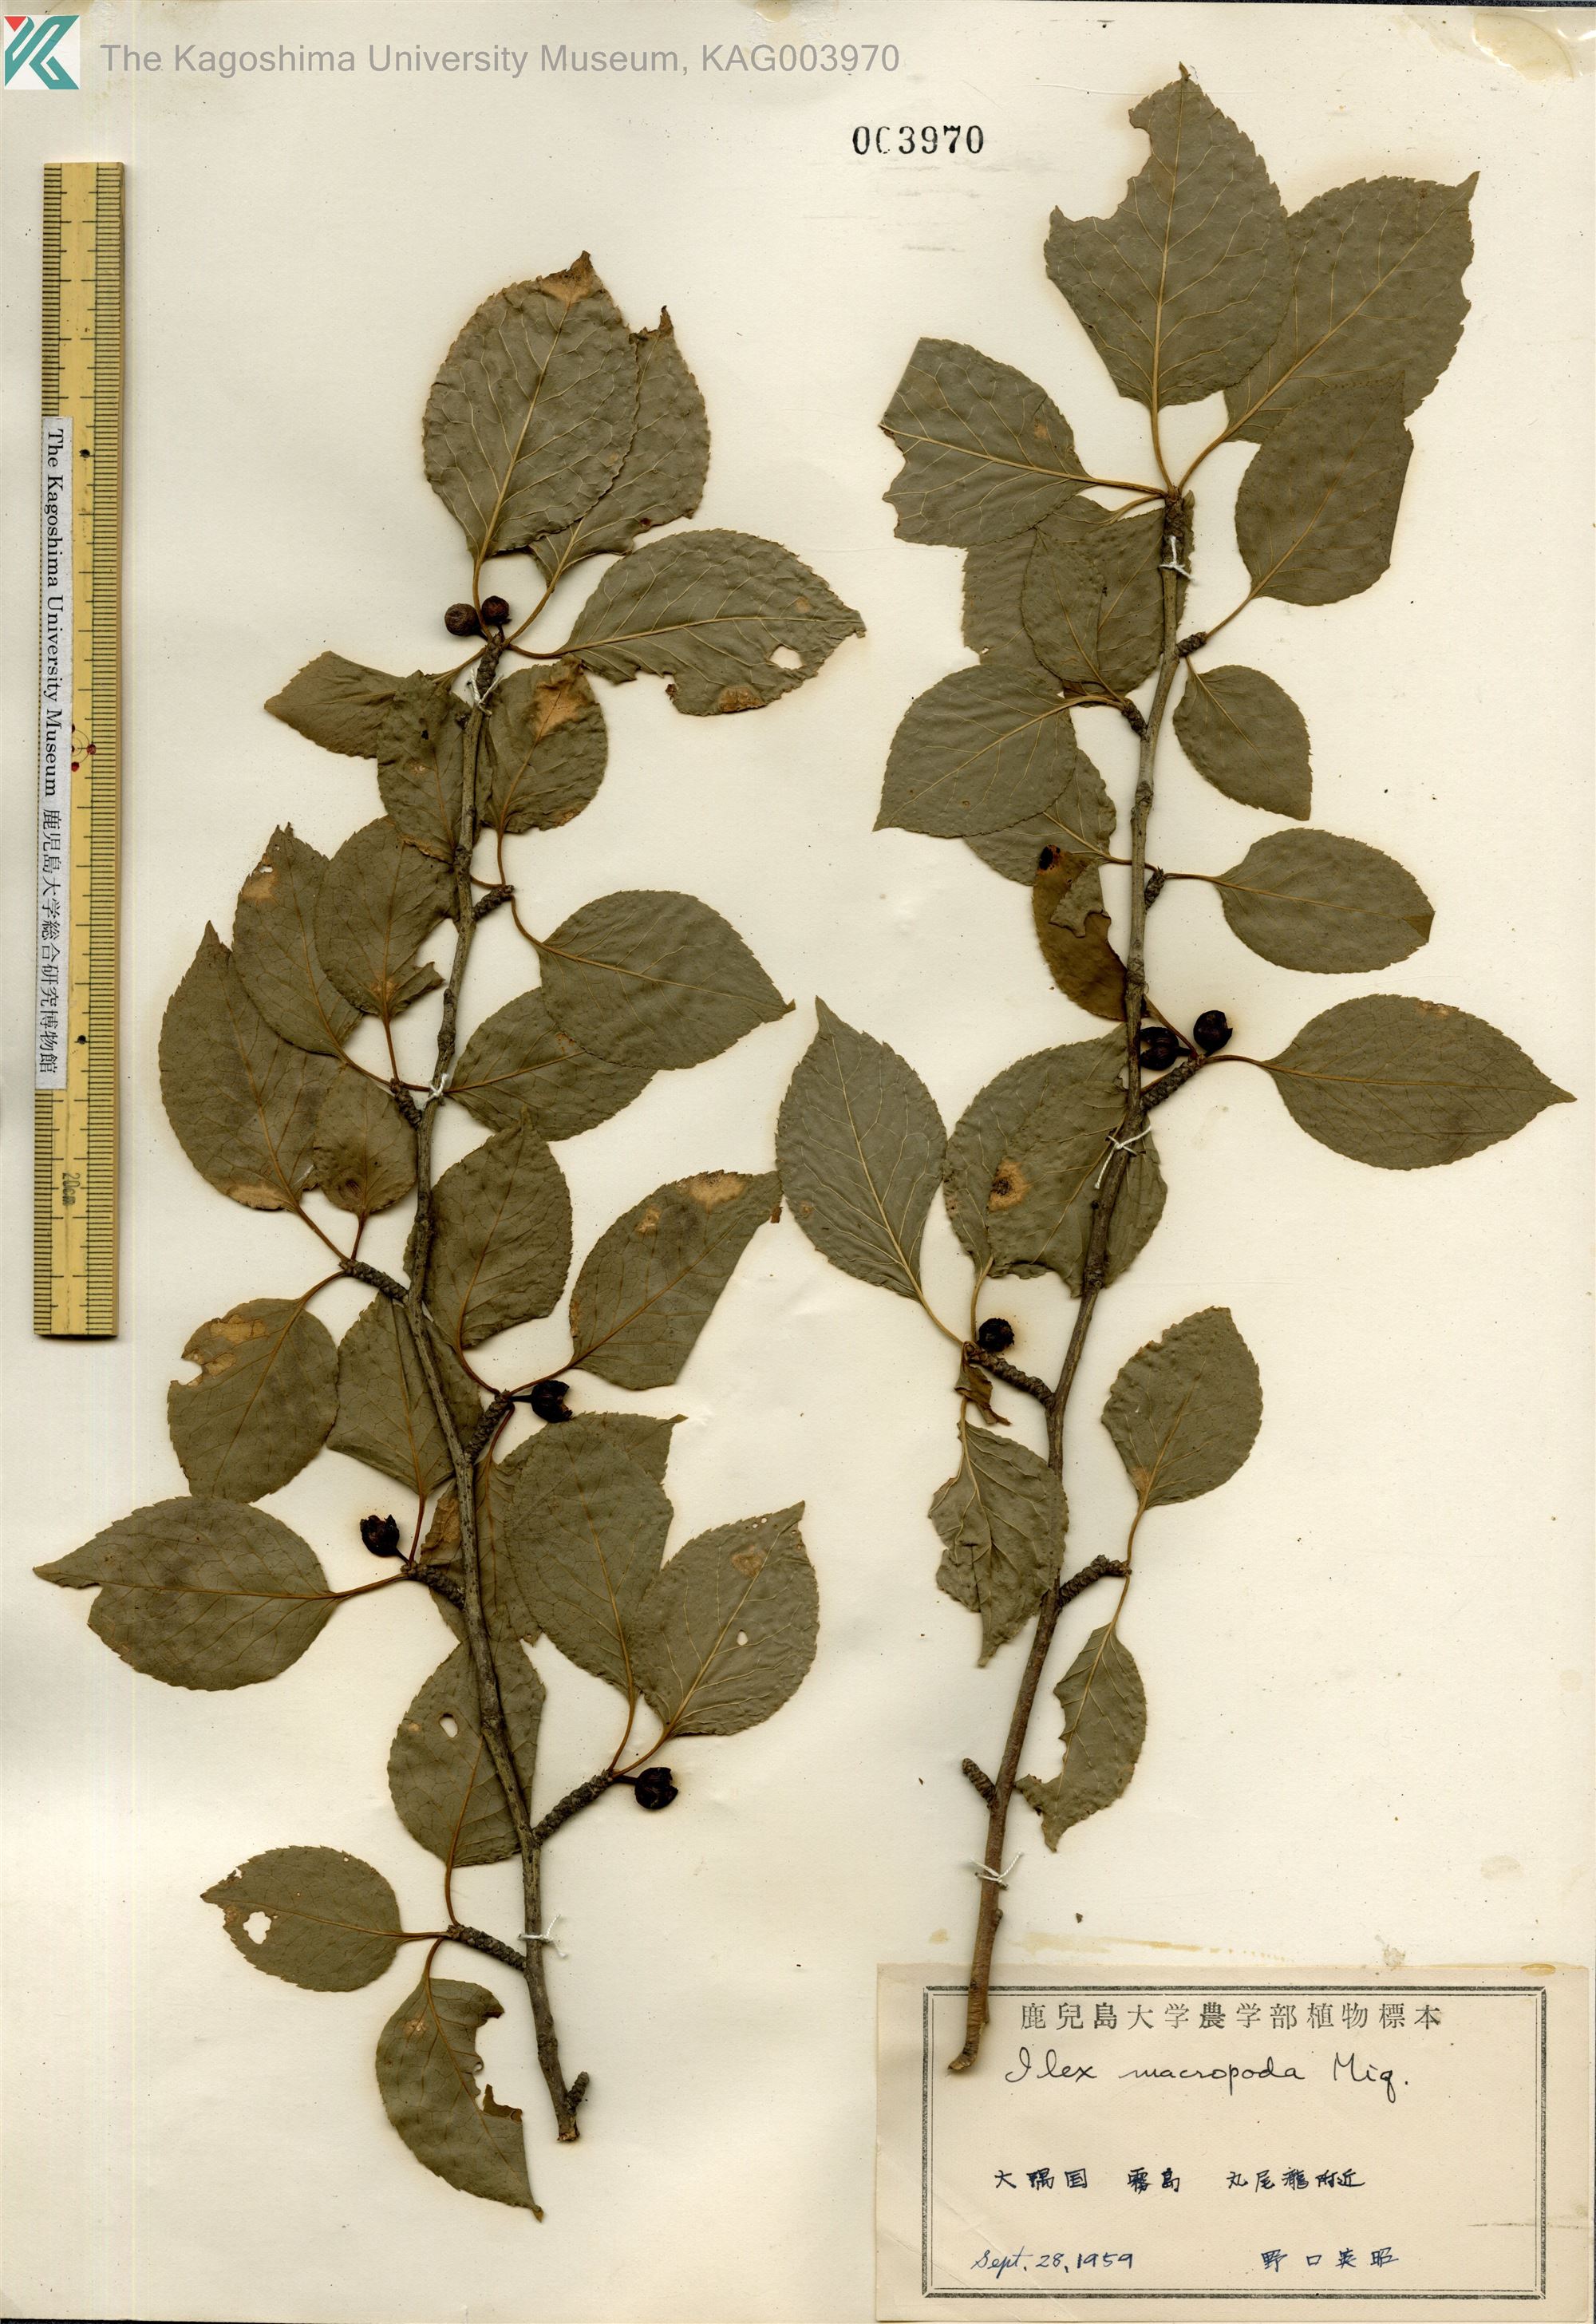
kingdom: Plantae
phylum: Tracheophyta
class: Magnoliopsida
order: Aquifoliales
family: Aquifoliaceae
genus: Ilex
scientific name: Ilex macropoda
